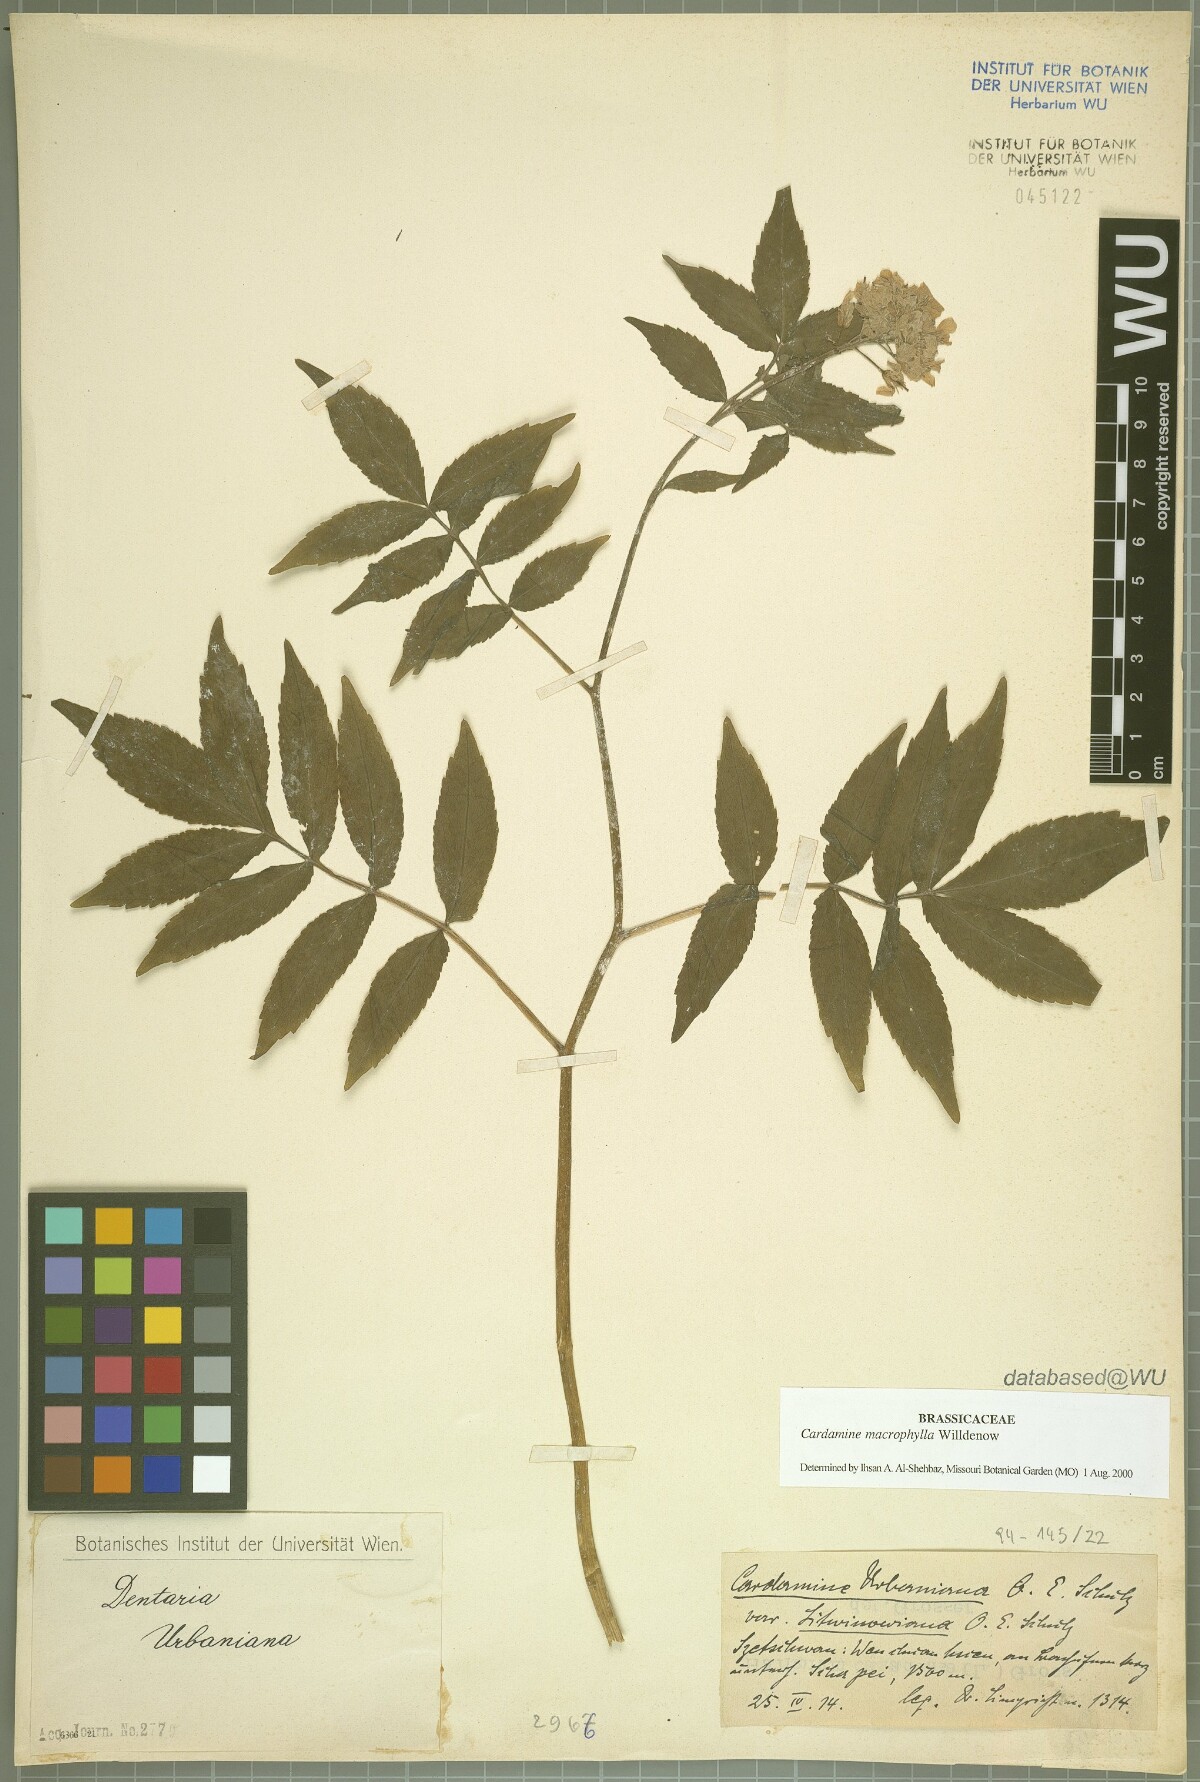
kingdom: Plantae
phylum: Tracheophyta
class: Magnoliopsida
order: Brassicales
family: Brassicaceae
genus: Cardamine
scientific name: Cardamine macrophylla
